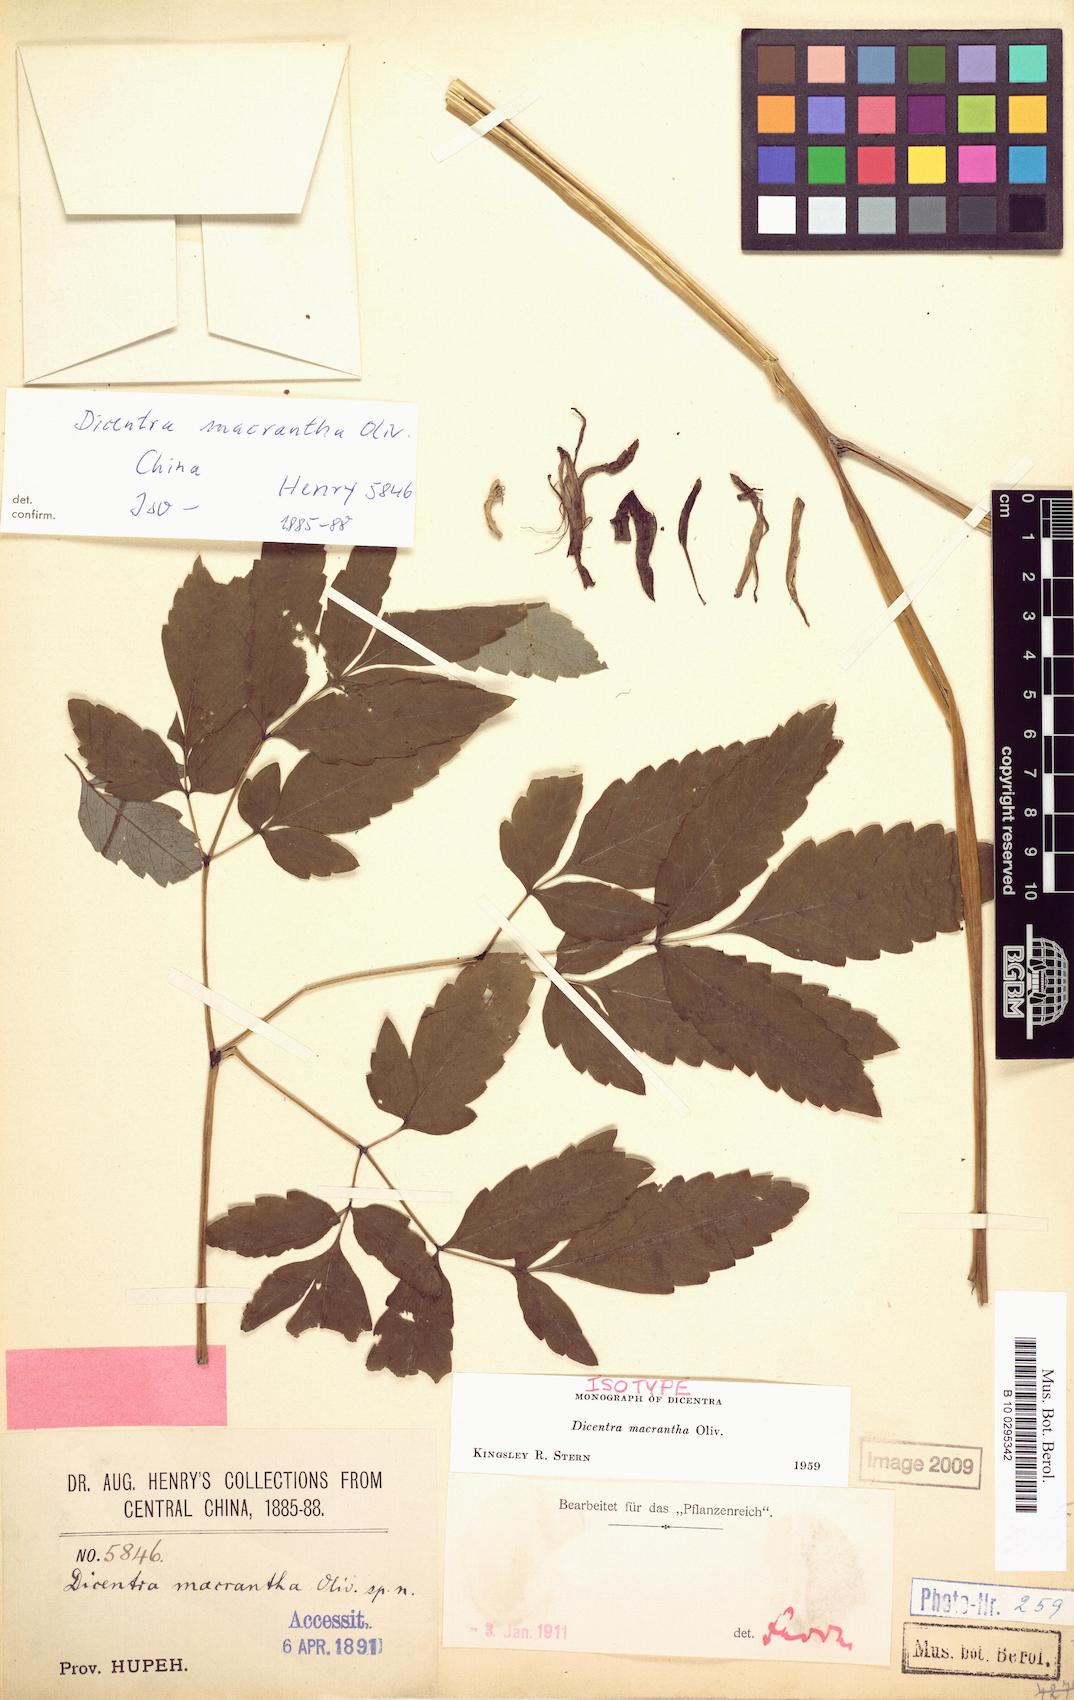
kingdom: Plantae
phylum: Tracheophyta
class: Magnoliopsida
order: Ranunculales
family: Papaveraceae
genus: Ichtyoselmis
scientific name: Ichtyoselmis macrantha
